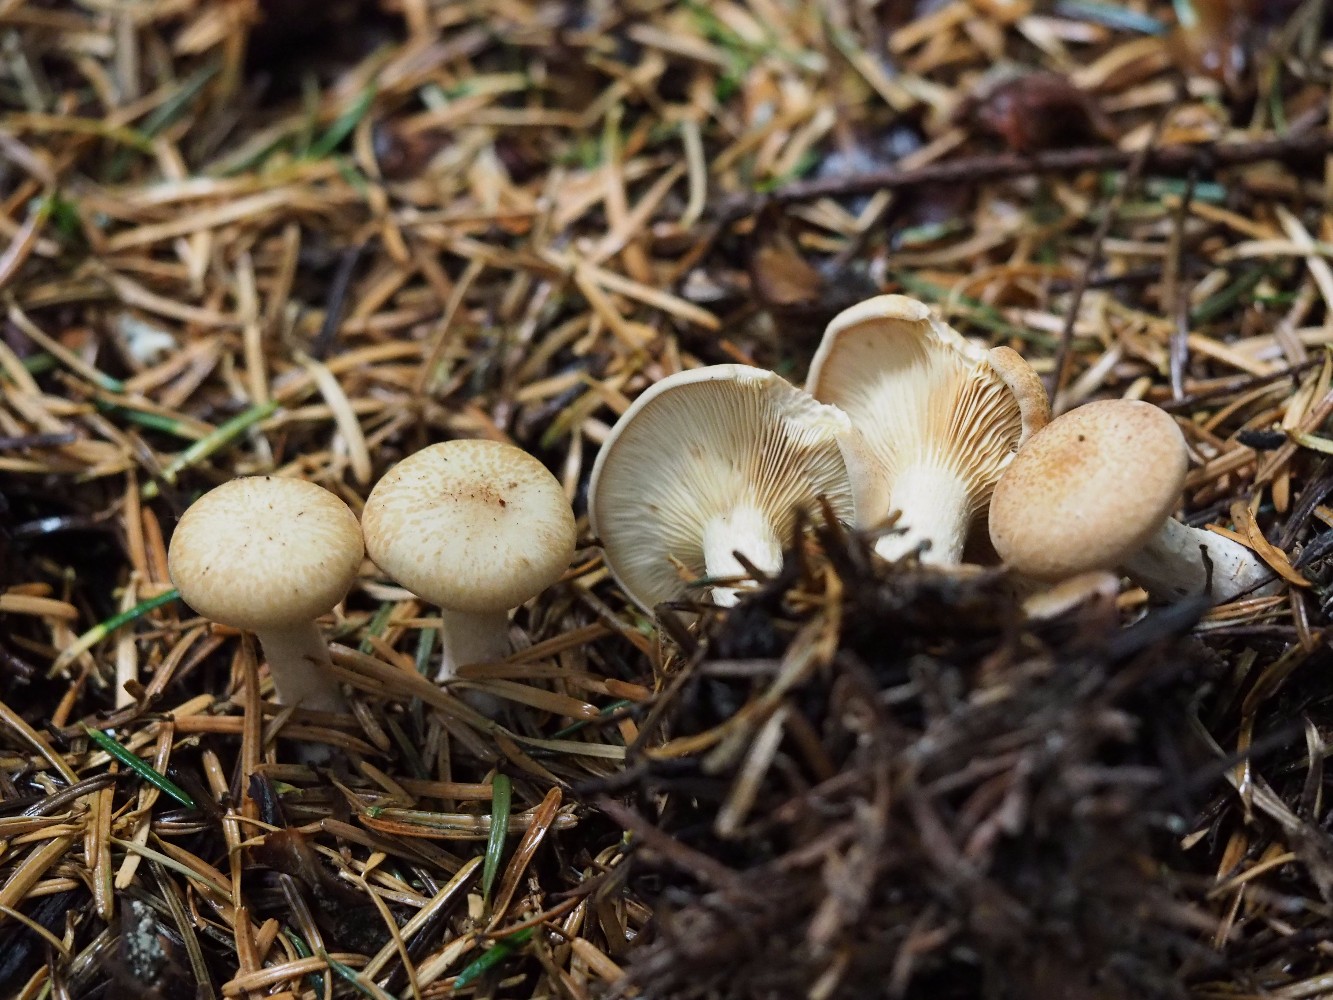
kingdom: Fungi
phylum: Basidiomycota
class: Agaricomycetes
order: Agaricales
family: Tricholomataceae
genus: Paralepista
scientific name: Paralepista gilva
